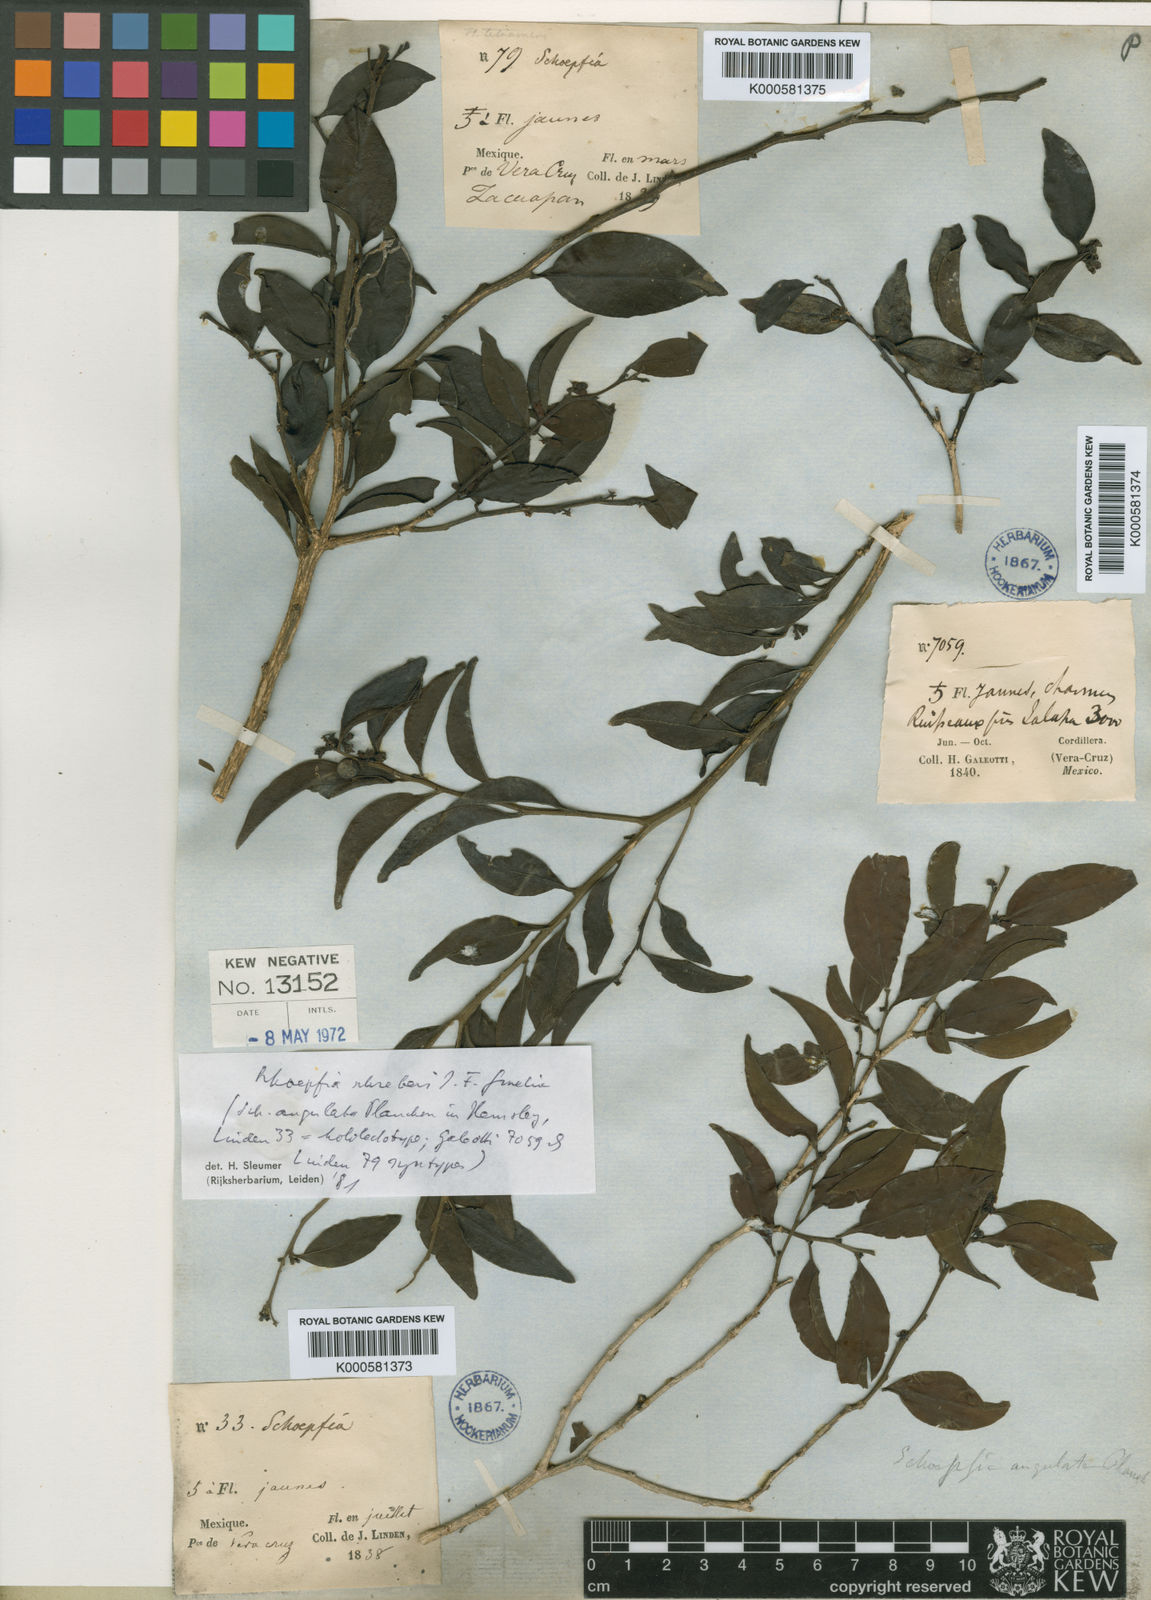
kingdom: Plantae
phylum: Tracheophyta
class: Magnoliopsida
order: Santalales
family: Schoepfiaceae
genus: Schoepfia
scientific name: Schoepfia schreberi
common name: Gulf graytwig
